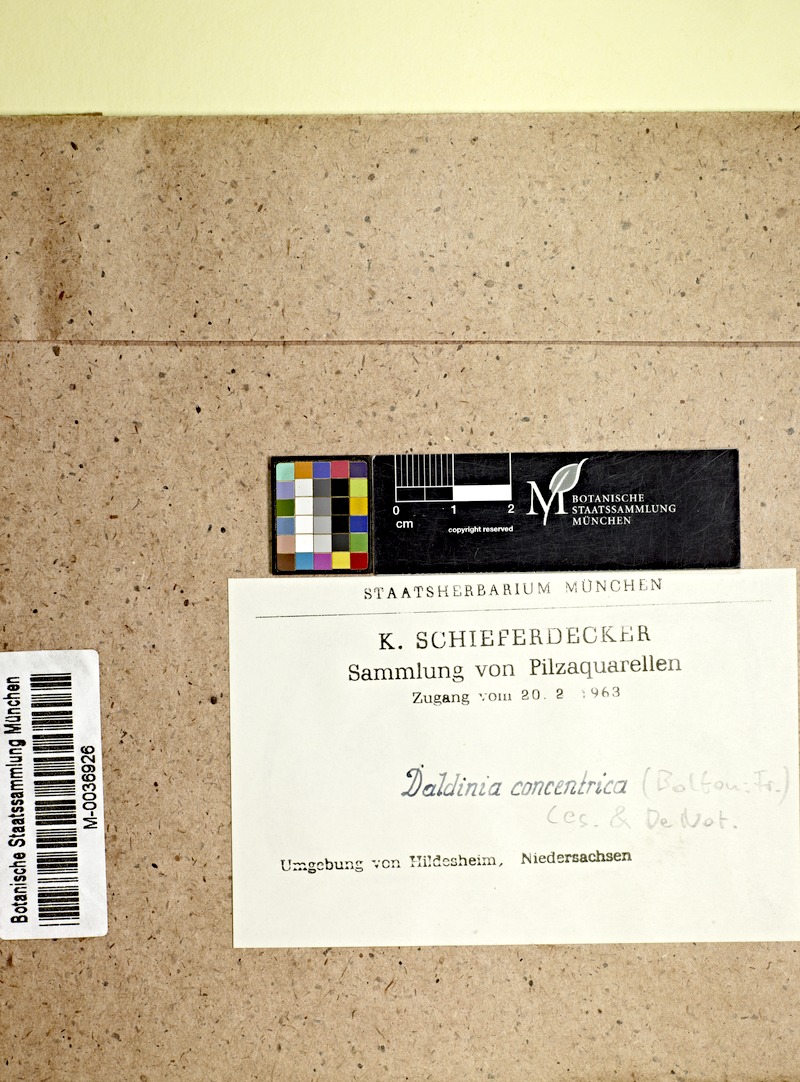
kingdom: Plantae
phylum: Tracheophyta
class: Magnoliopsida
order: Fagales
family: Betulaceae
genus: Corylus
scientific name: Corylus
